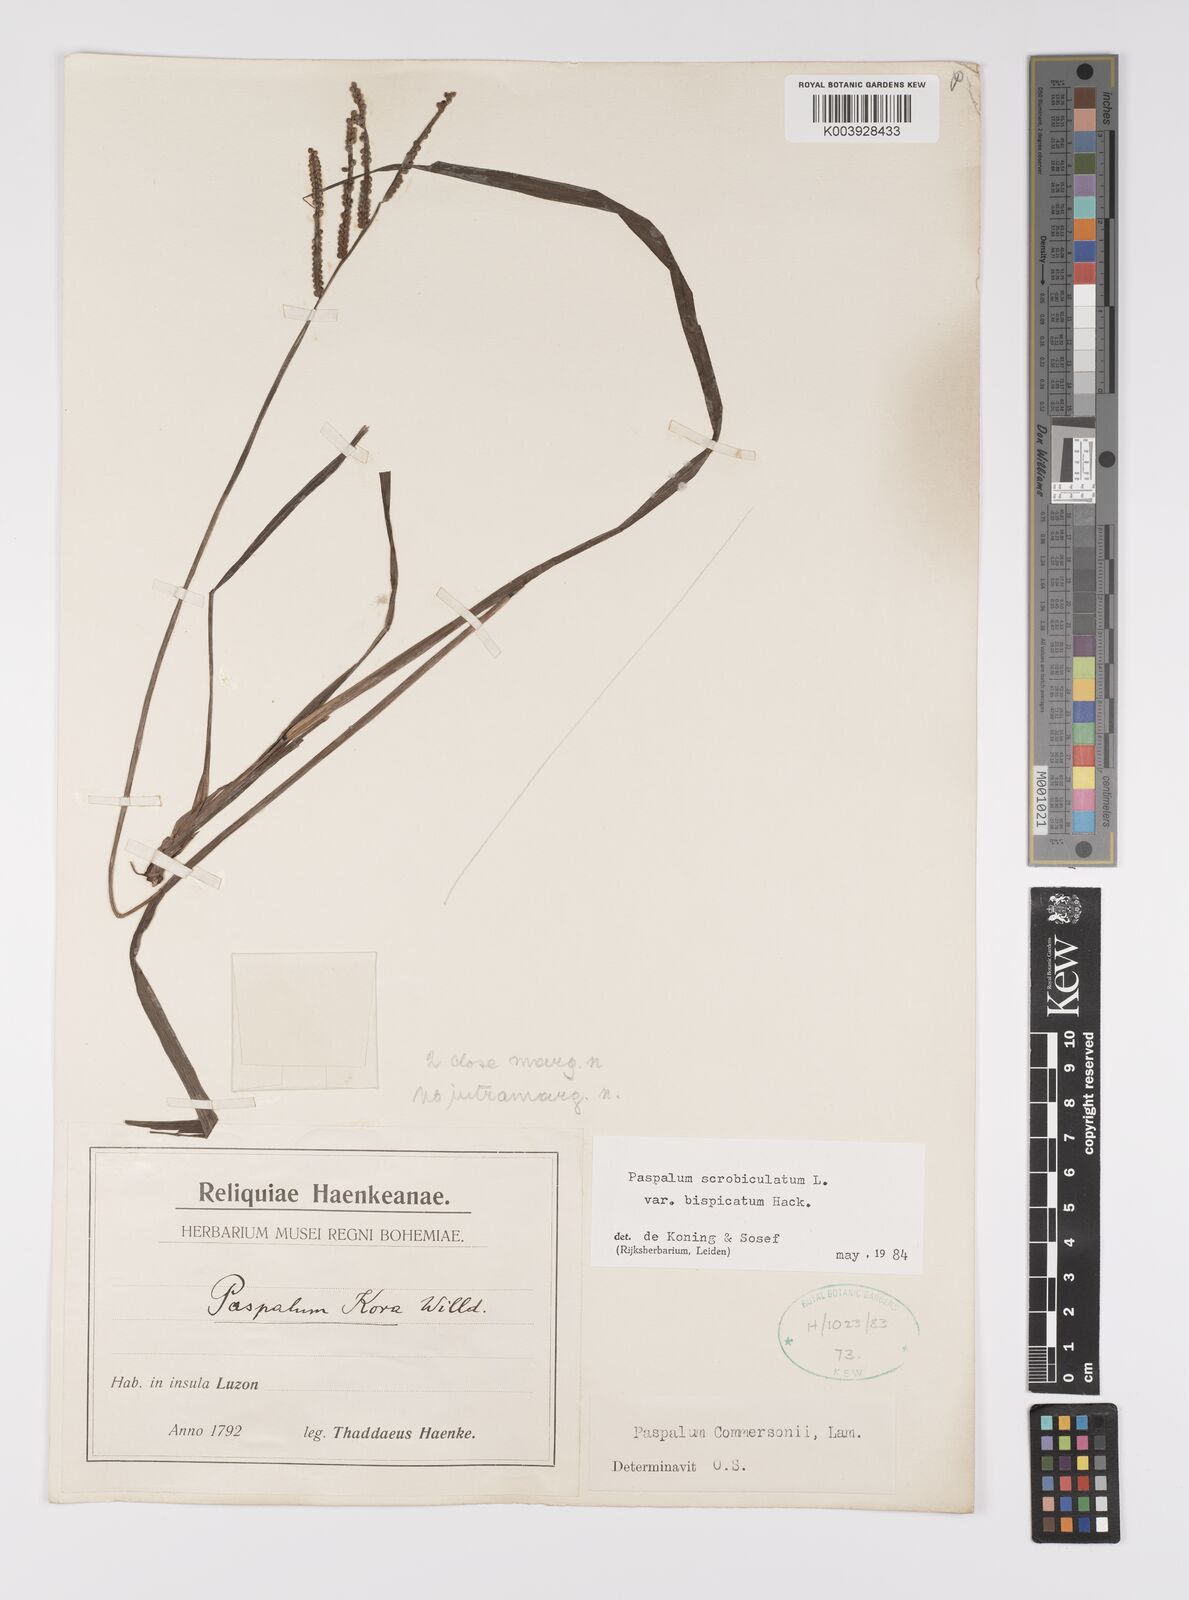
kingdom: Plantae
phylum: Tracheophyta
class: Liliopsida
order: Poales
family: Poaceae
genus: Paspalum
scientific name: Paspalum scrobiculatum
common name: Kodo millet
